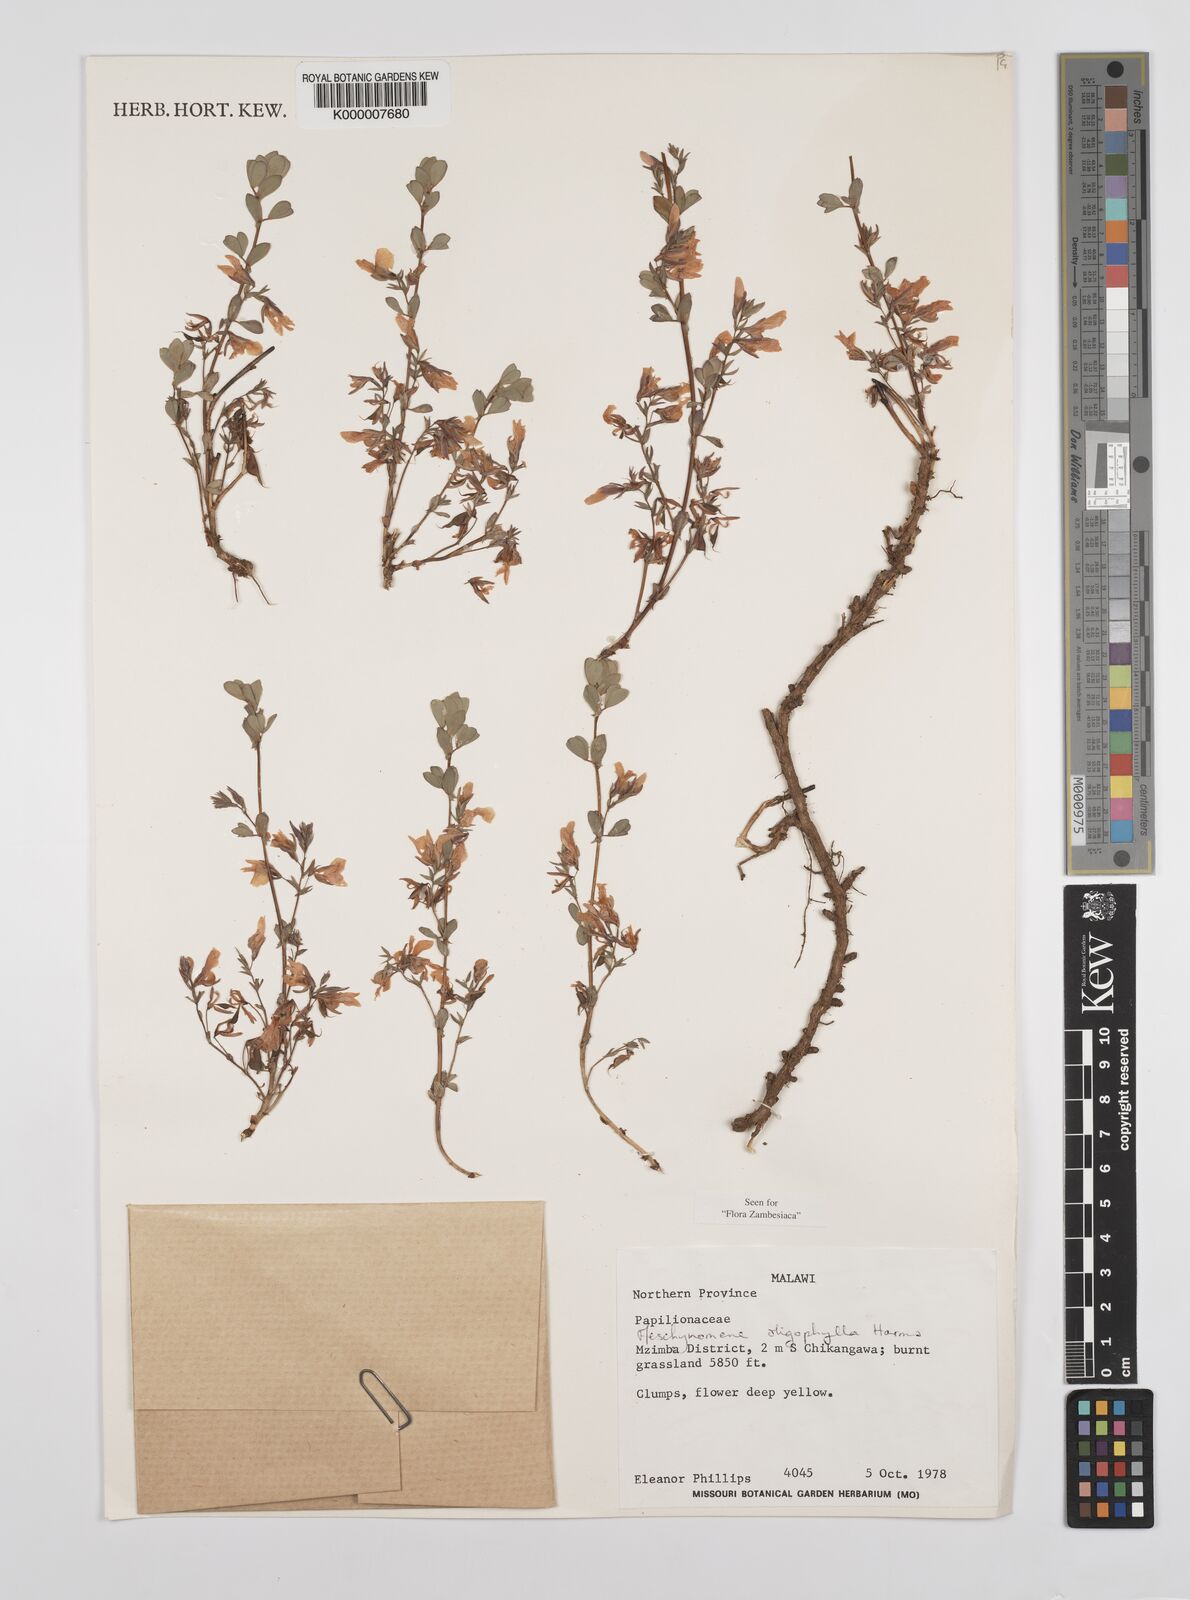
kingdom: Plantae
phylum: Tracheophyta
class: Magnoliopsida
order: Fabales
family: Fabaceae
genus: Aeschynomene
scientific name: Aeschynomene oligophylla
